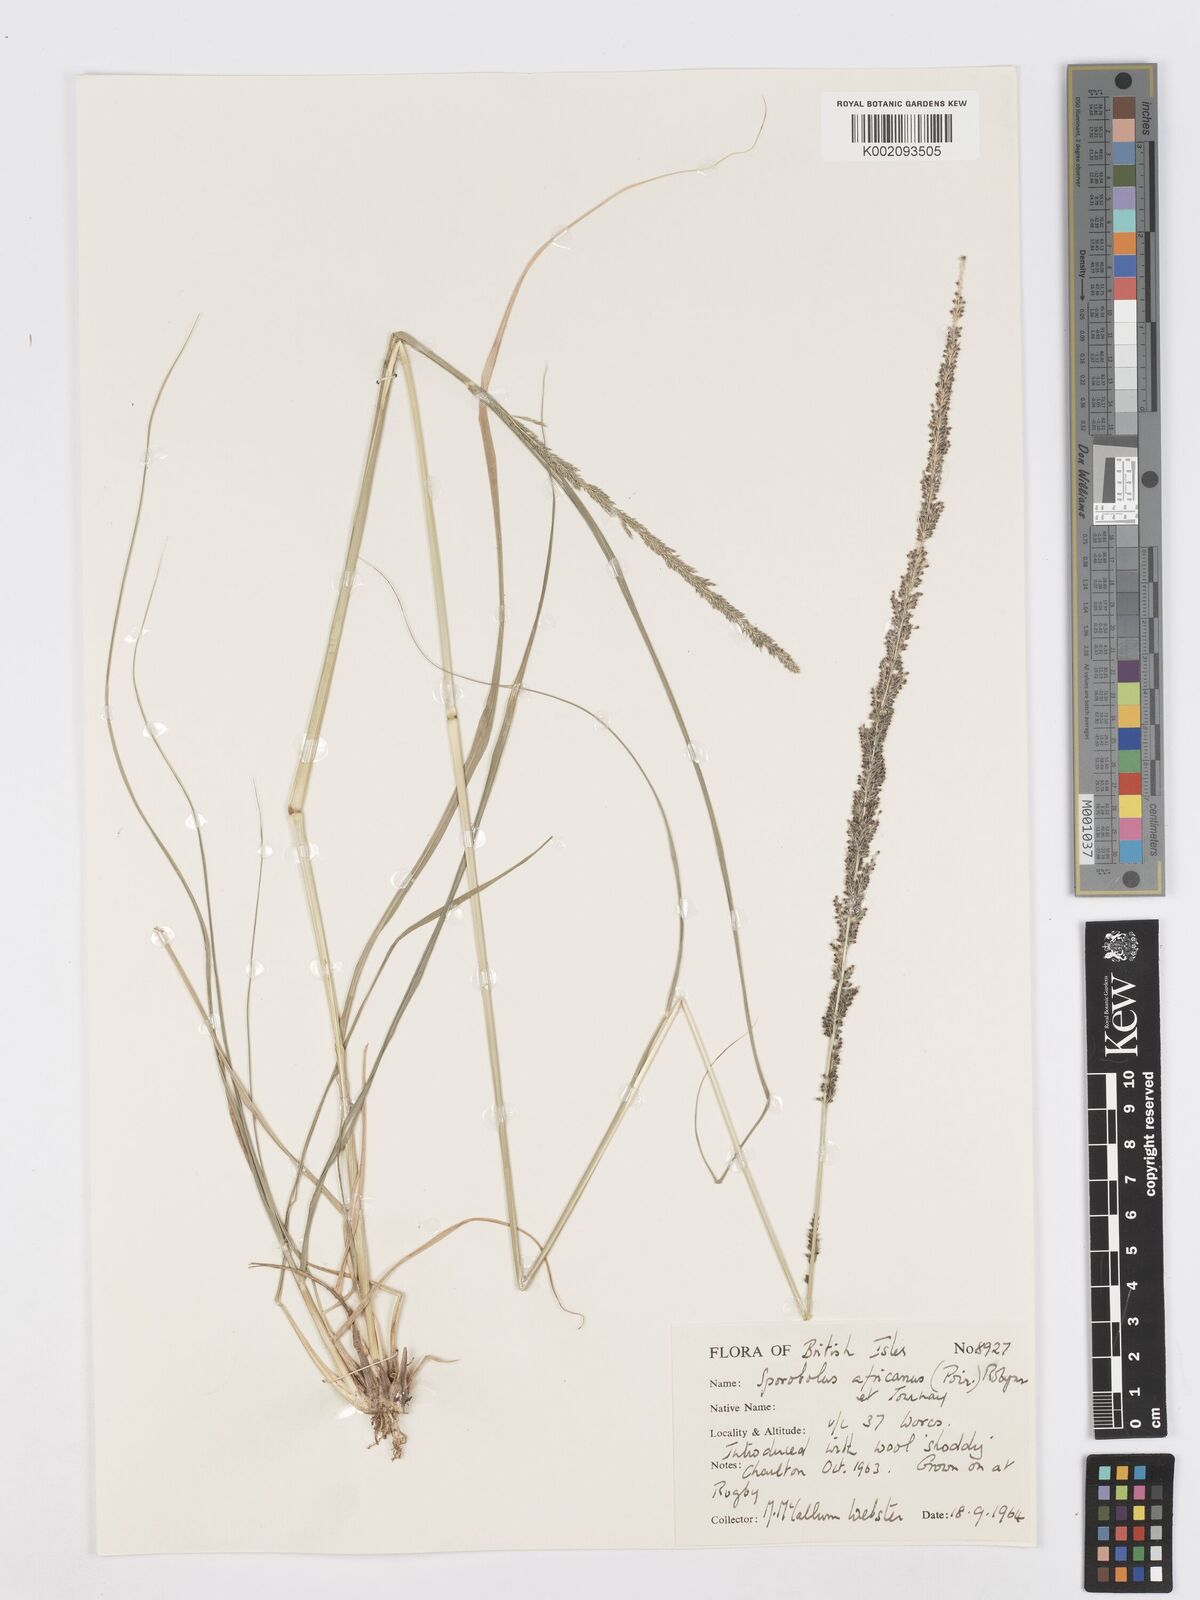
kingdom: Plantae
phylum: Tracheophyta
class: Liliopsida
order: Poales
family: Poaceae
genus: Sporobolus
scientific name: Sporobolus africanus
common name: African dropseed
